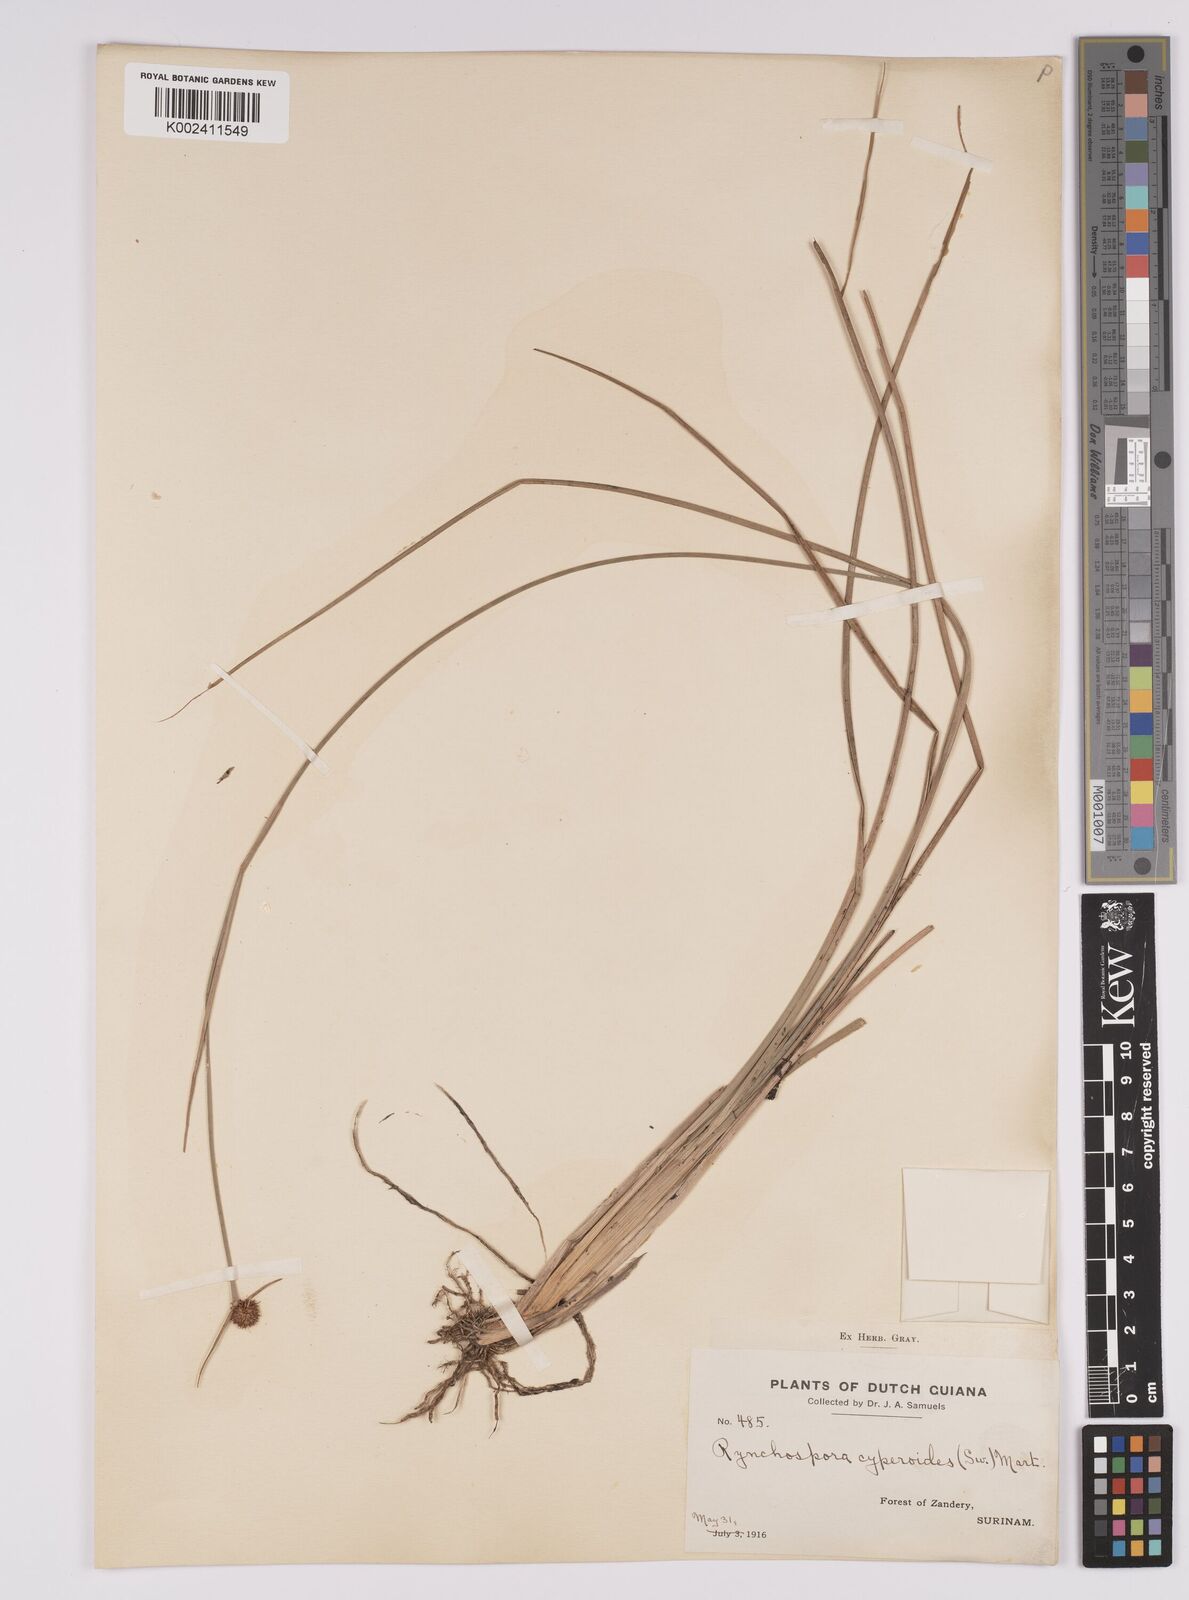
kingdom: Plantae
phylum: Tracheophyta
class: Liliopsida
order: Poales
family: Cyperaceae
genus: Rhynchospora
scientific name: Rhynchospora holoschoenoides
